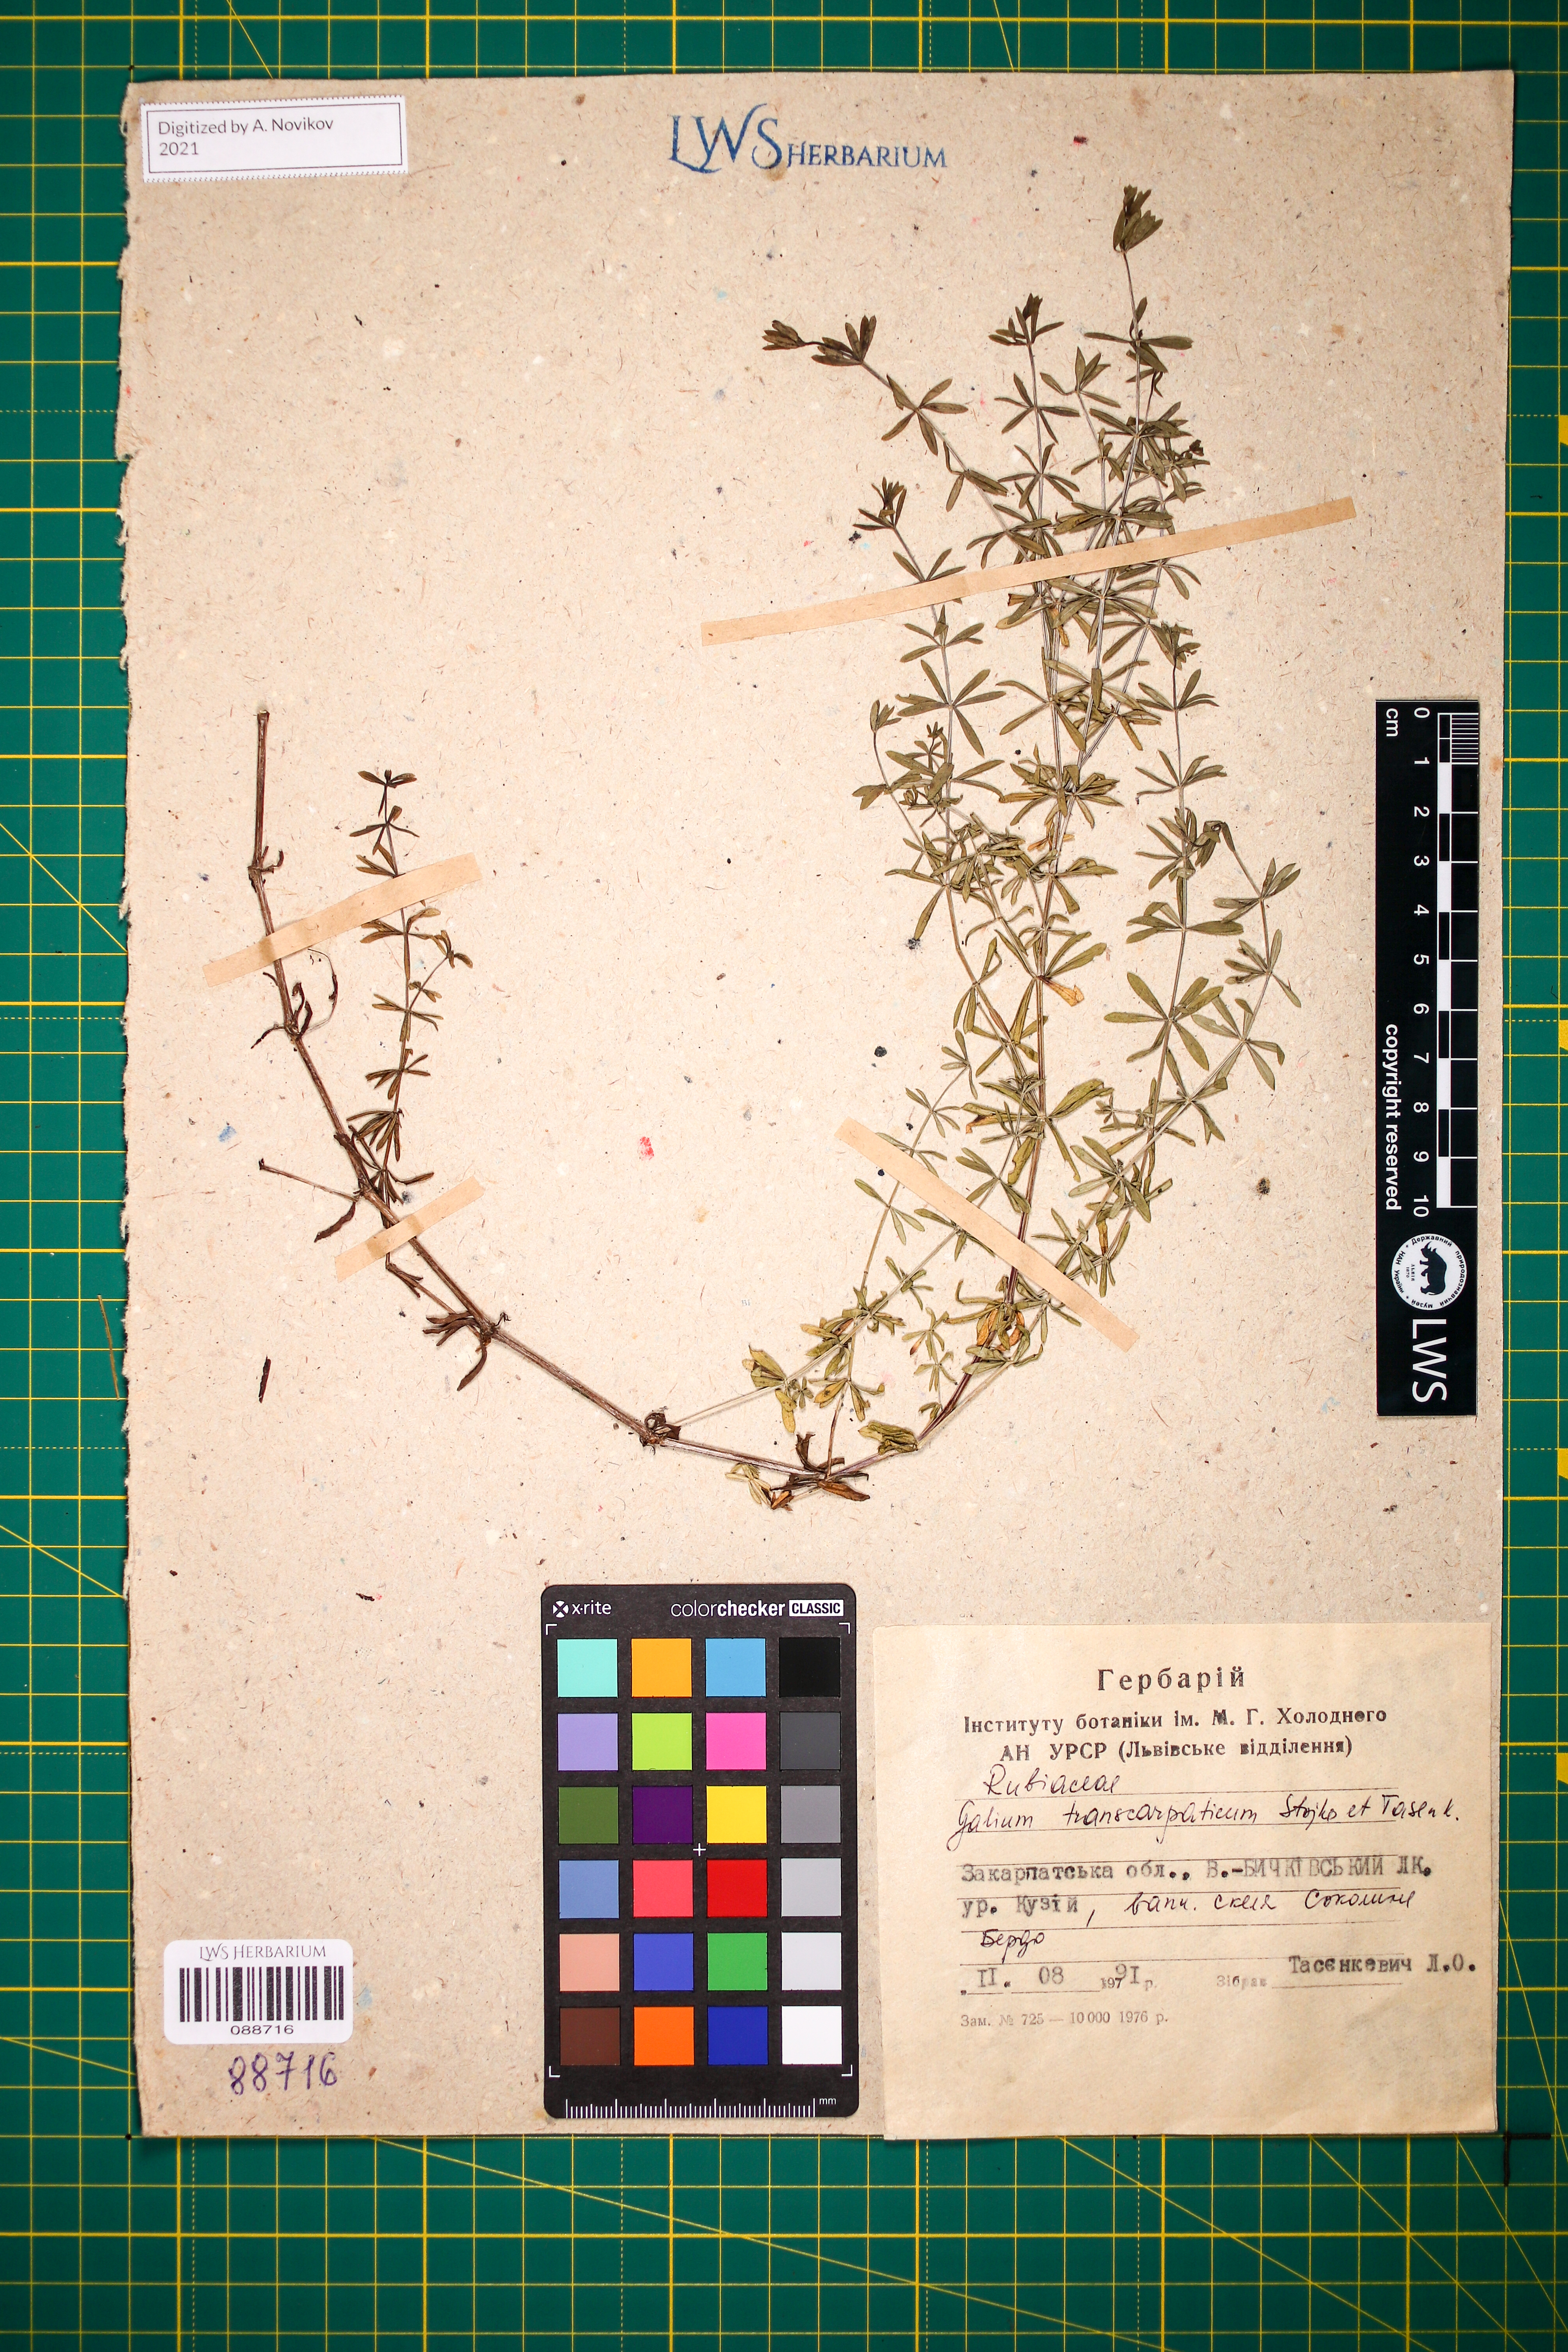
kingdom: Plantae
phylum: Tracheophyta
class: Magnoliopsida
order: Gentianales
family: Rubiaceae
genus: Galium
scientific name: Galium transcarpaticum
